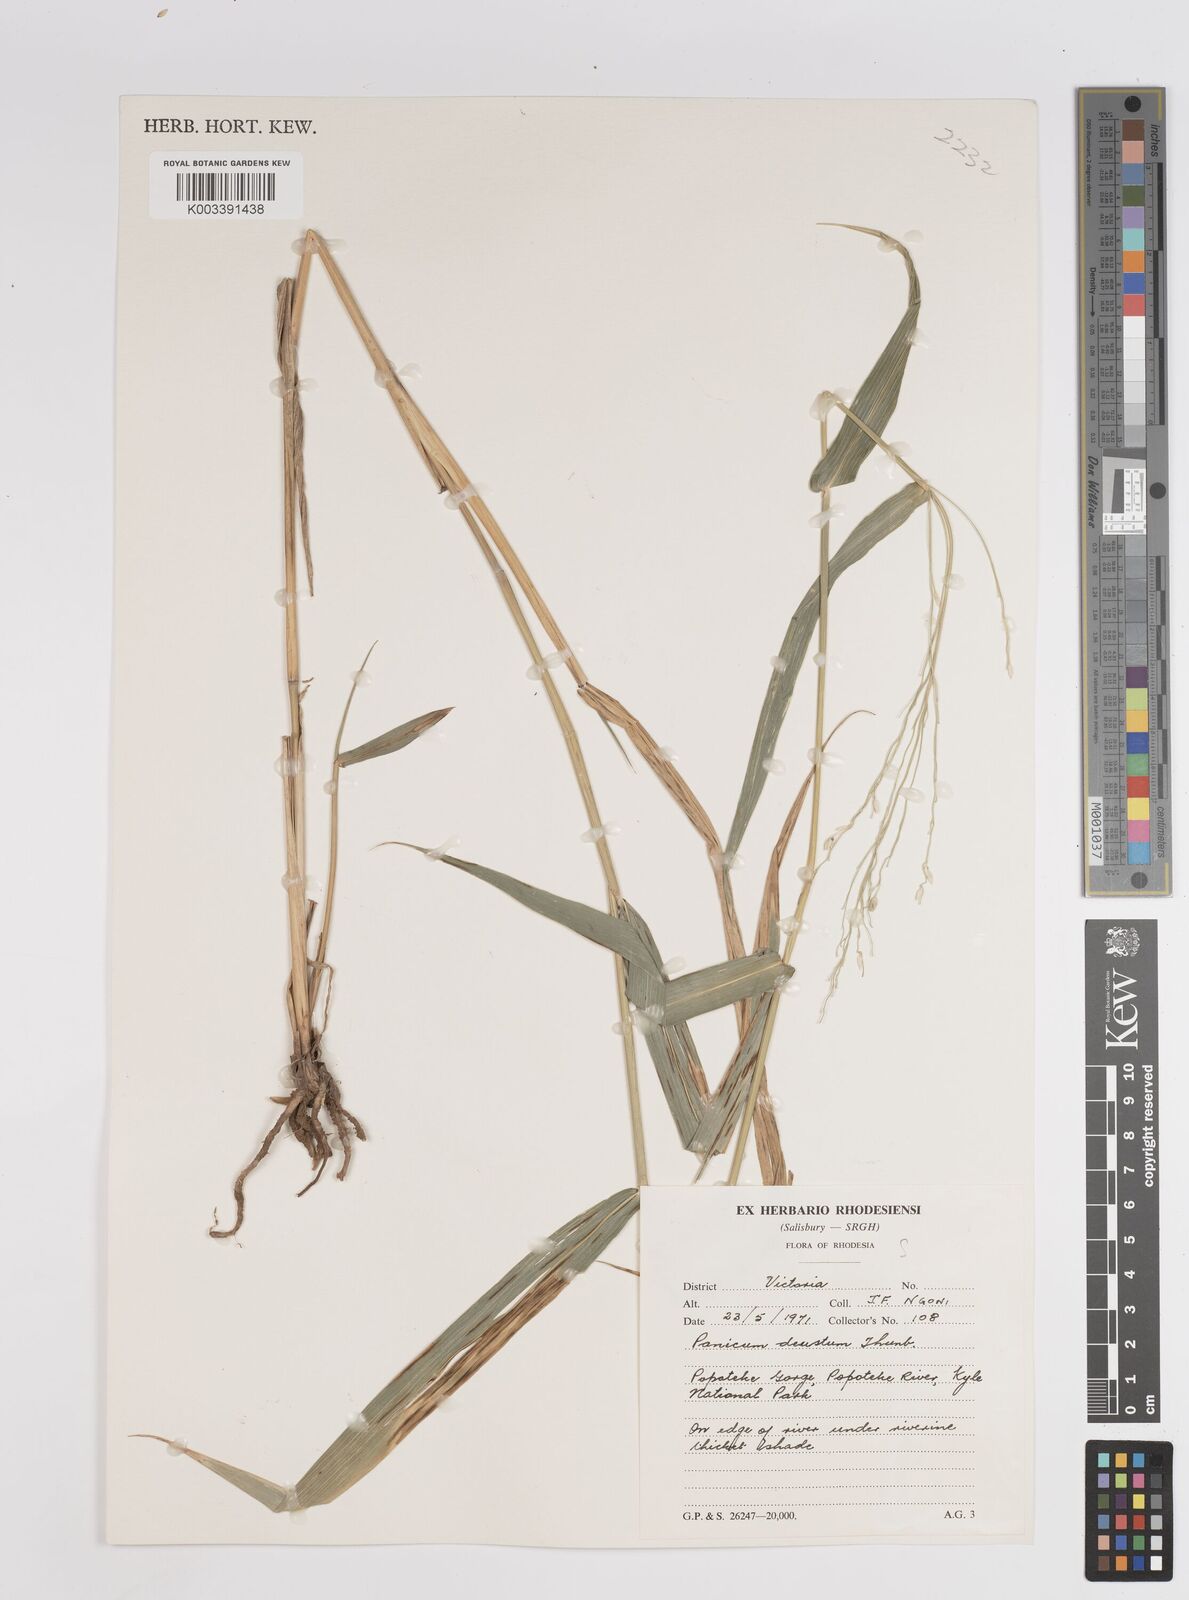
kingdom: Plantae
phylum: Tracheophyta
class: Liliopsida
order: Poales
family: Poaceae
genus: Panicum
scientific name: Panicum deustum
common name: Reed panicum
